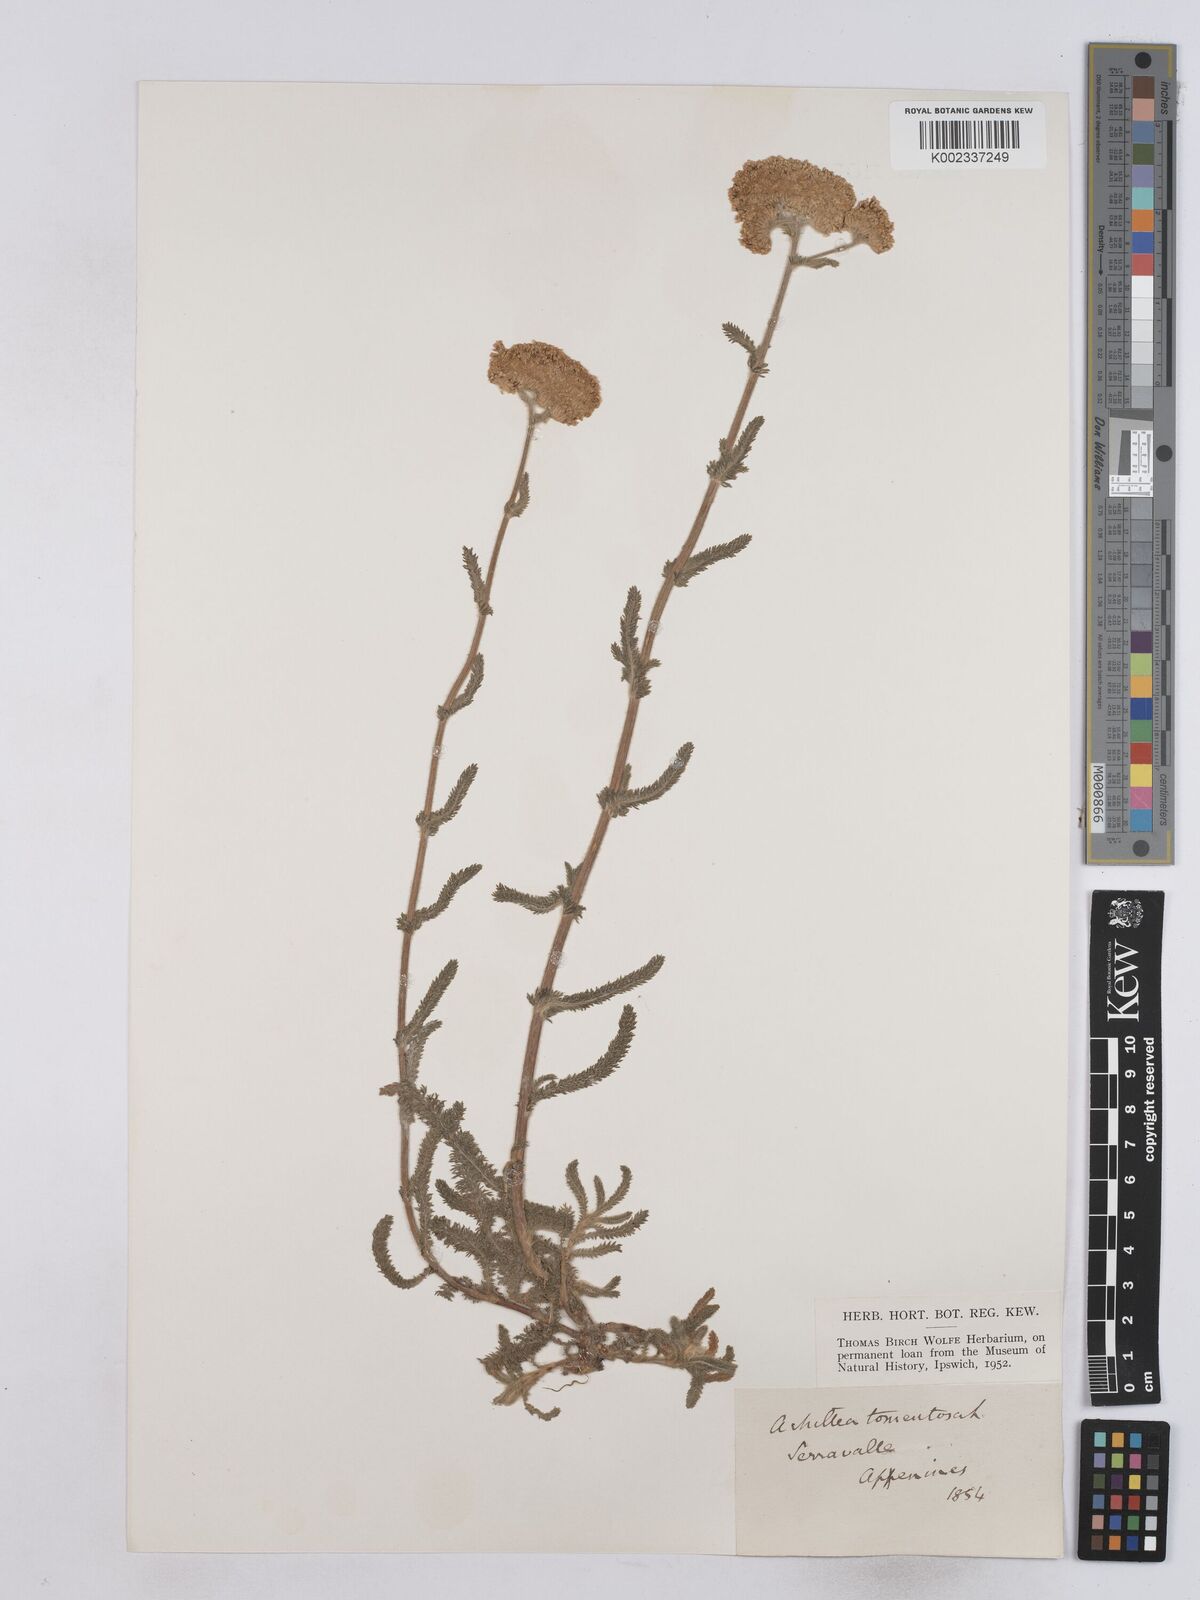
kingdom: Plantae
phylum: Tracheophyta
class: Magnoliopsida
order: Asterales
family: Asteraceae
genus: Achillea
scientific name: Achillea tomentosa
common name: Yellow milfoil
